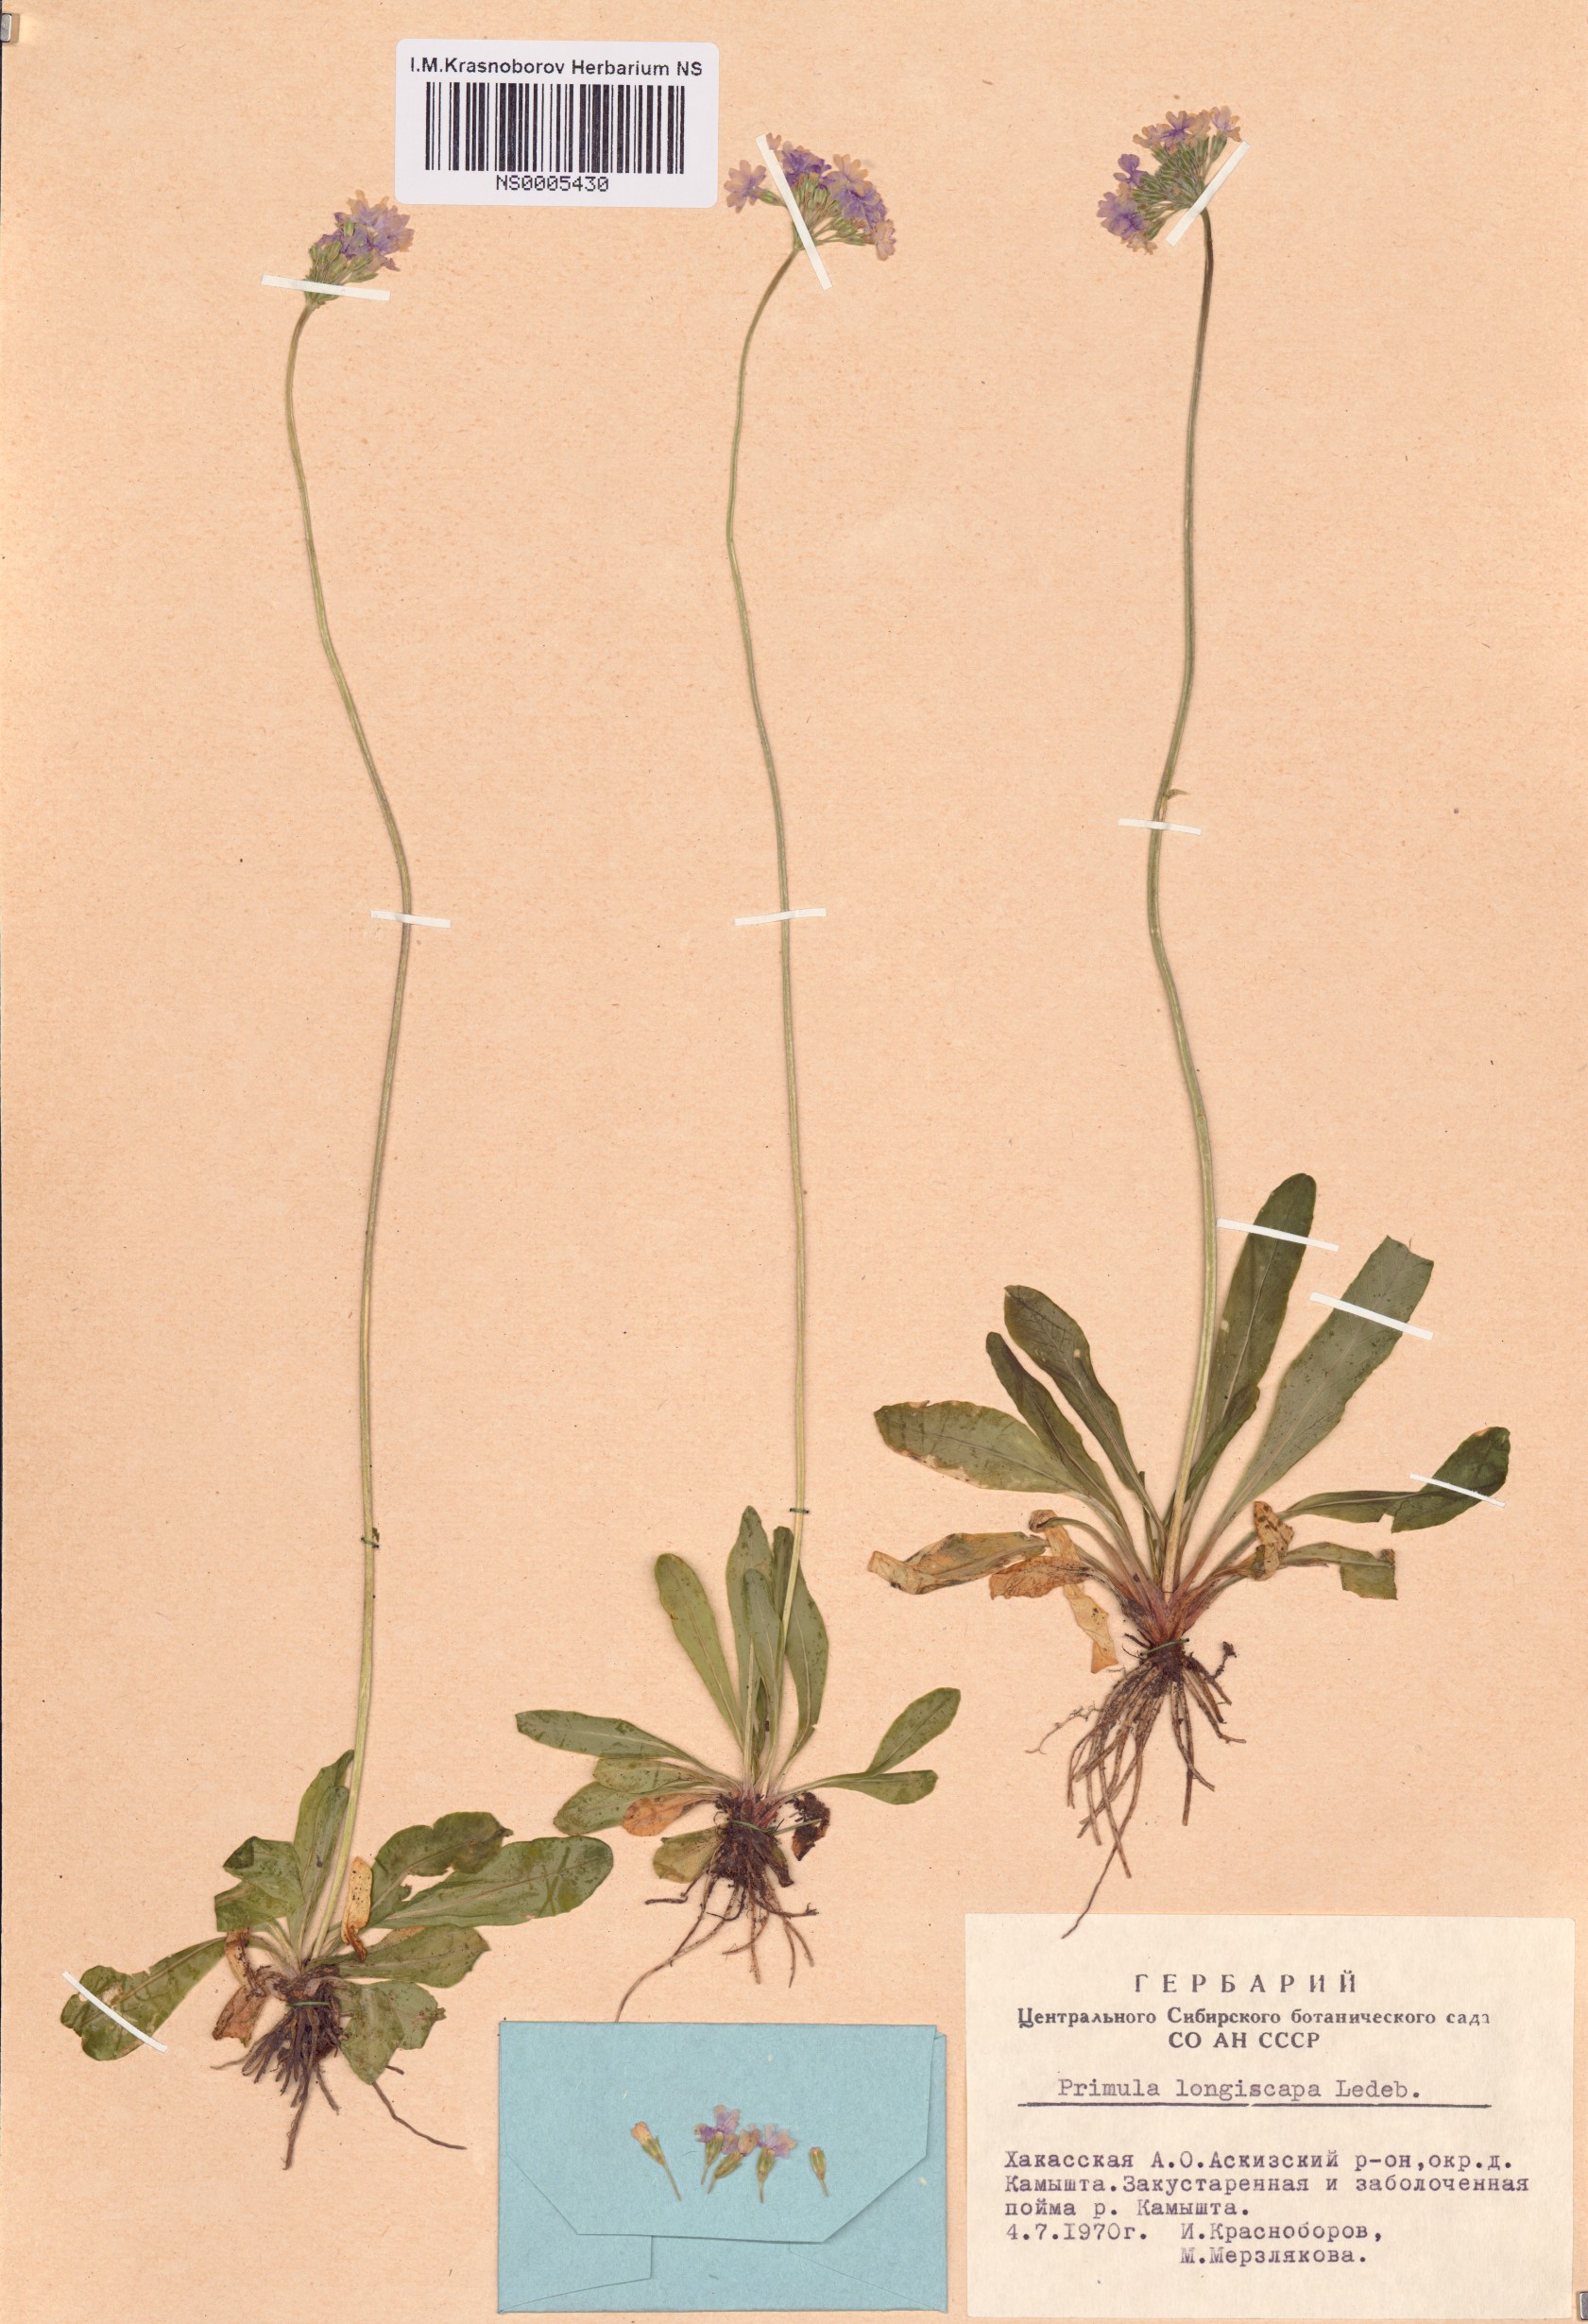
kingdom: Plantae
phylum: Tracheophyta
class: Magnoliopsida
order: Ericales
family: Primulaceae
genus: Primula
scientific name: Primula longiscapa
